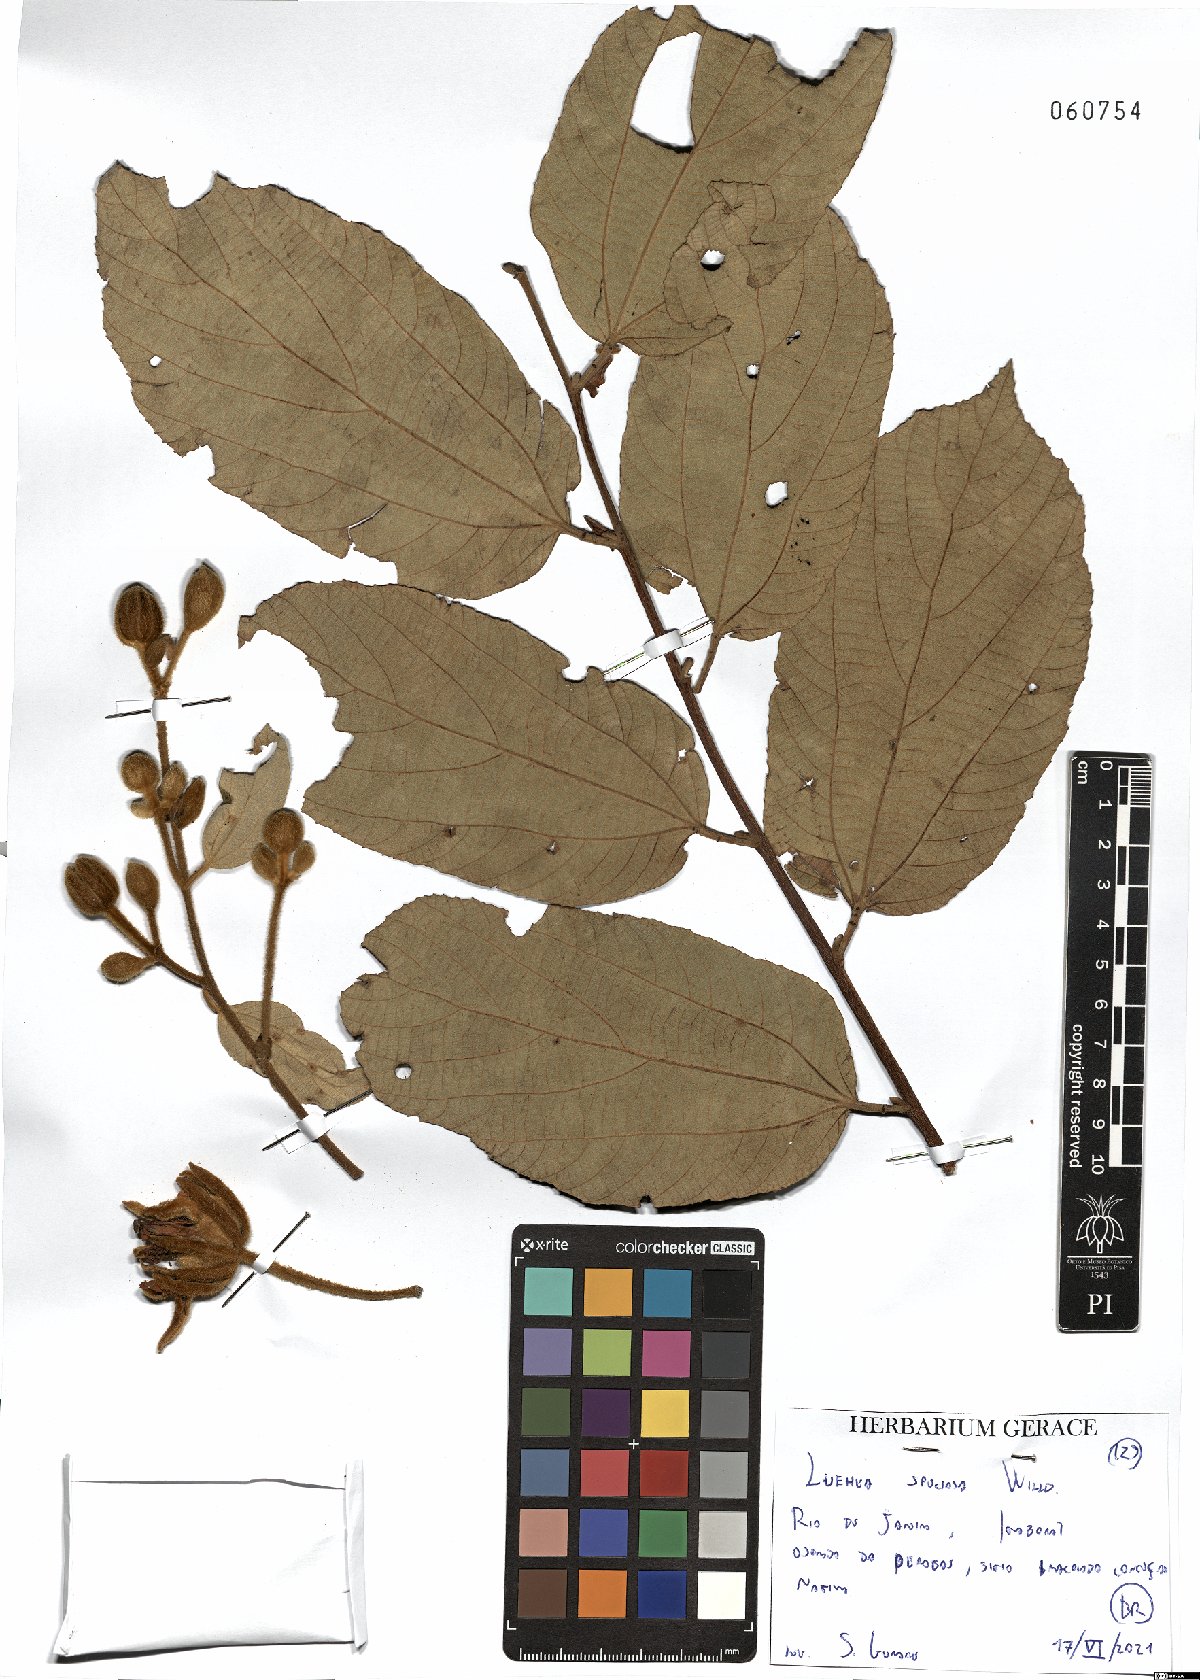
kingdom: Plantae
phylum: Tracheophyta
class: Magnoliopsida
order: Malvales
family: Malvaceae
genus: Luehea
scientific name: Luehea speciosa
